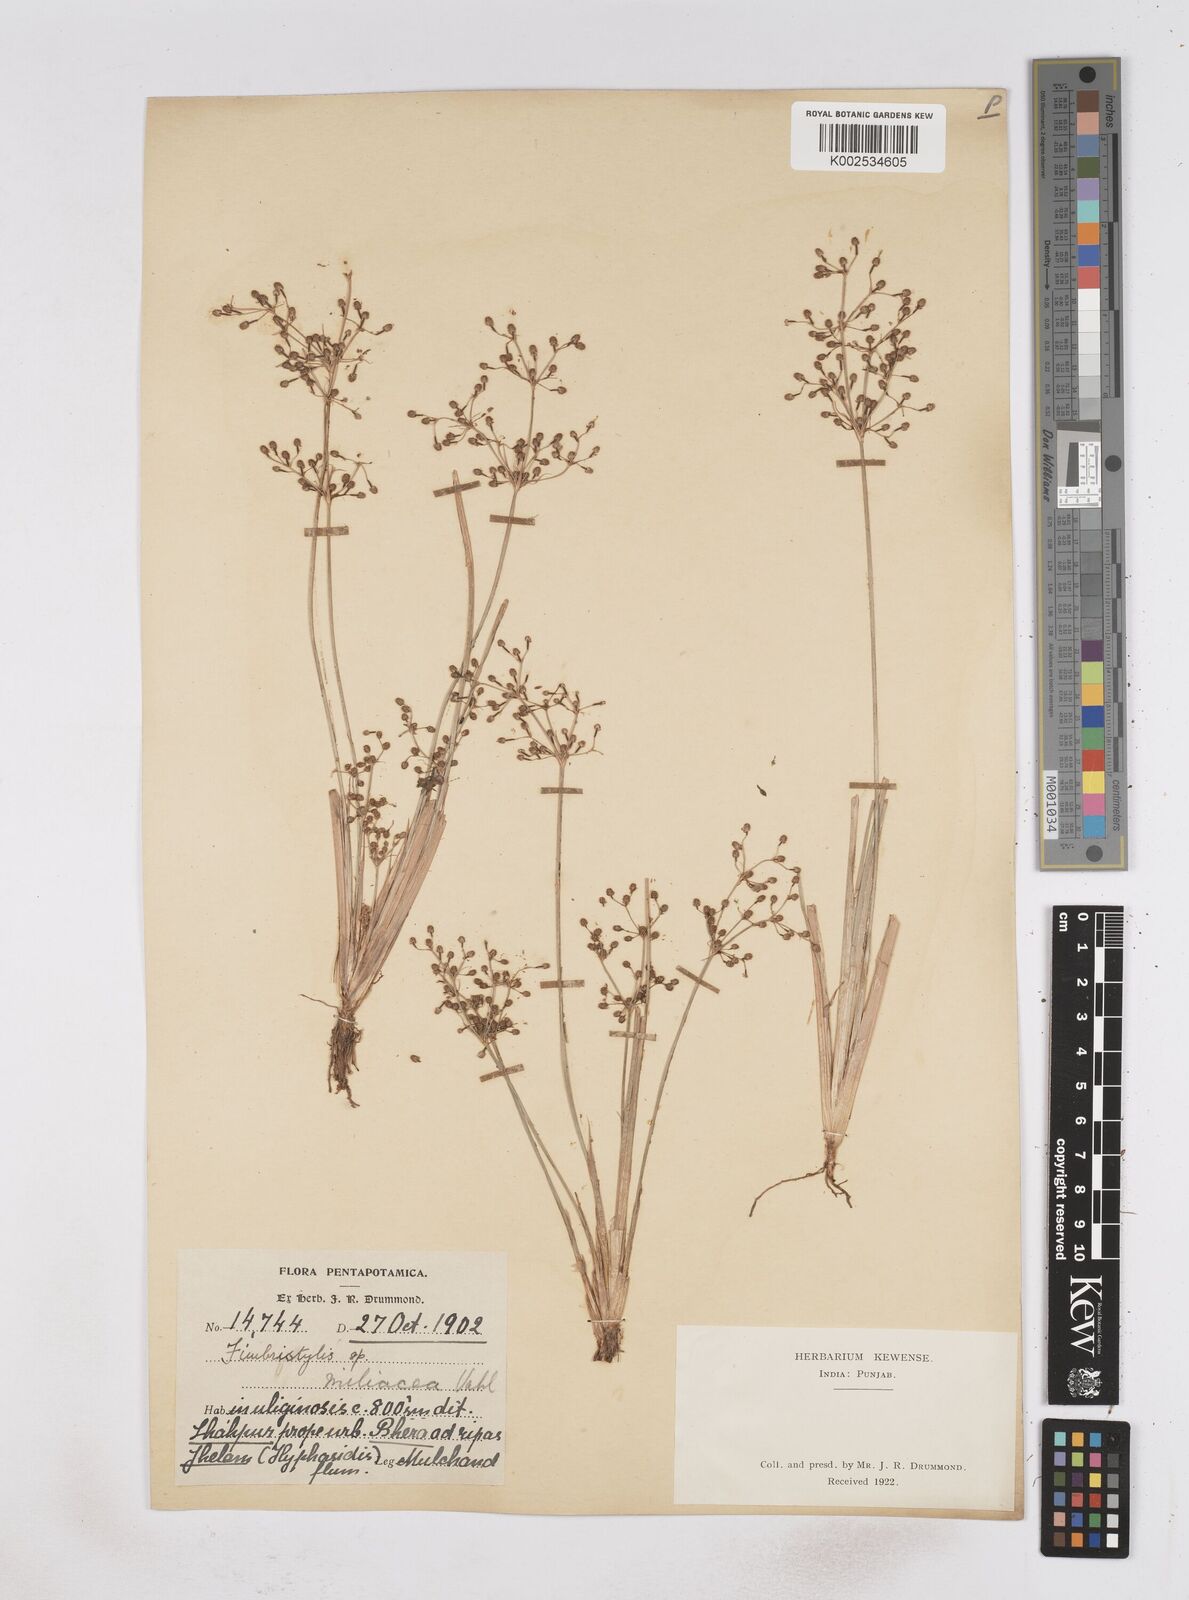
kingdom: Plantae
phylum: Tracheophyta
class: Liliopsida
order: Poales
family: Cyperaceae
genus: Fimbristylis
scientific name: Fimbristylis littoralis
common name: Fimbry
